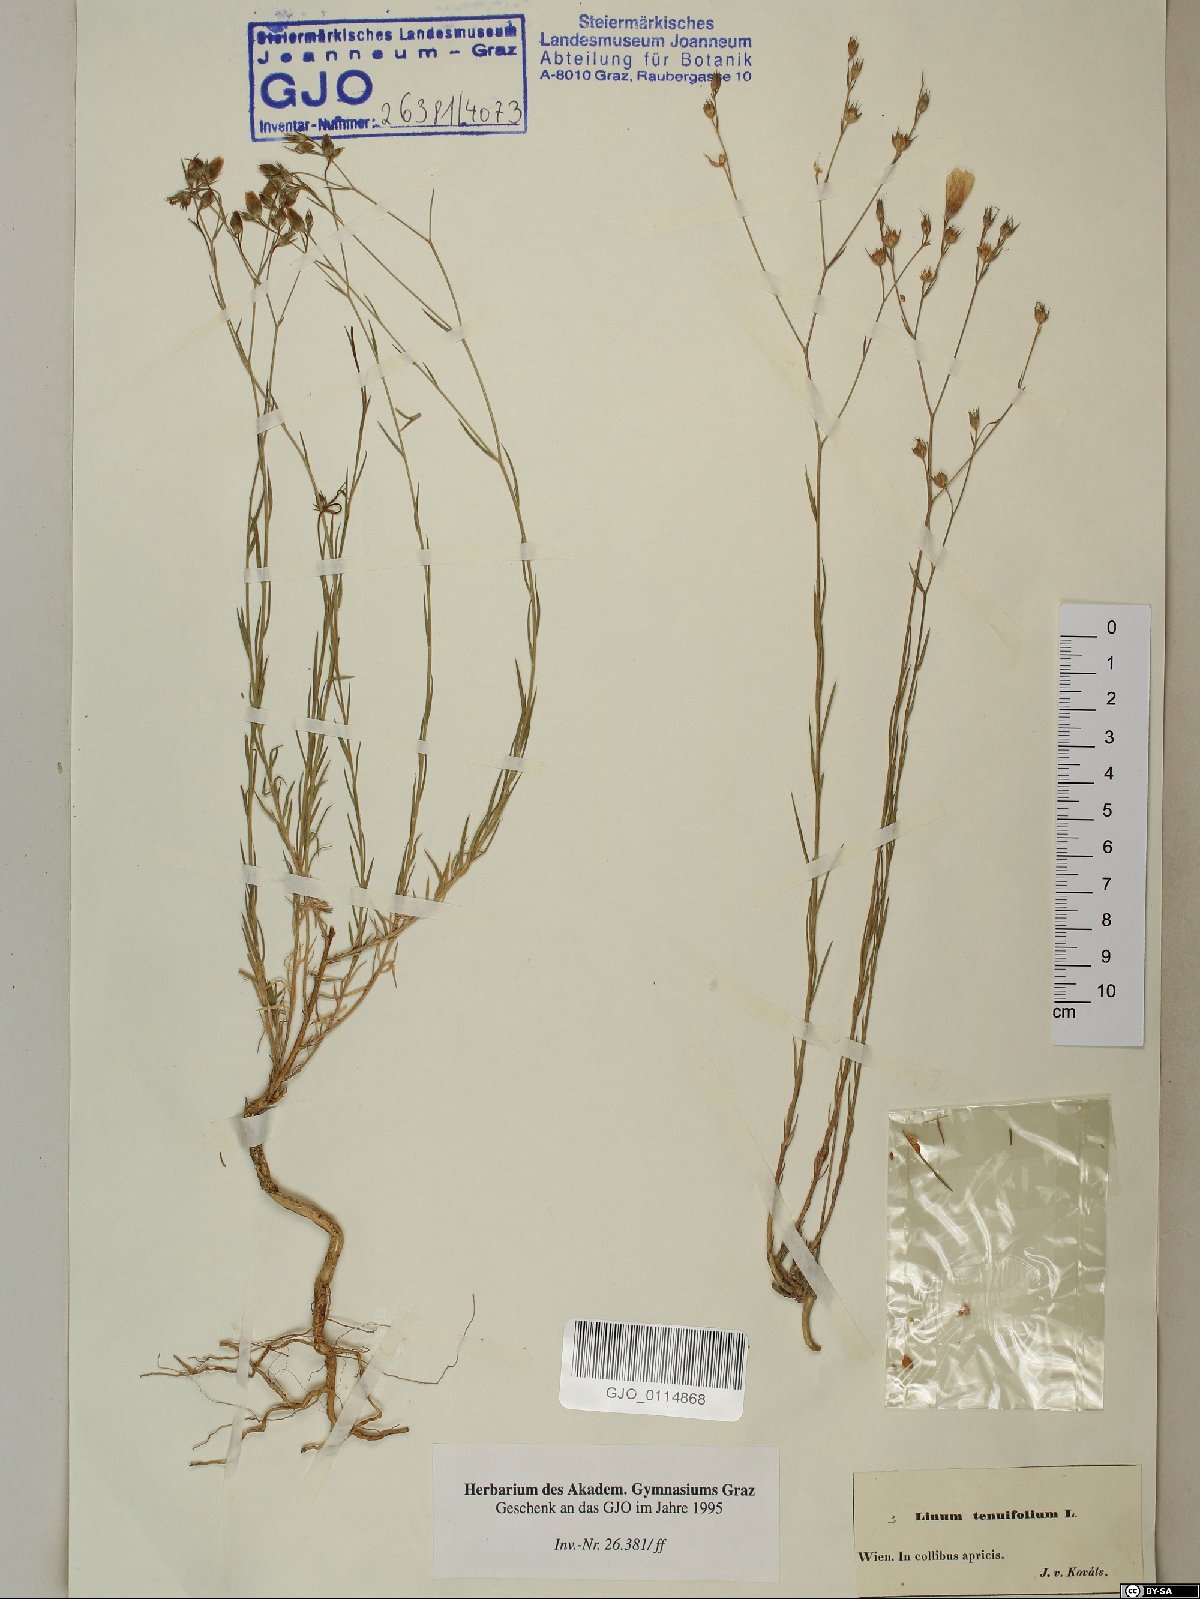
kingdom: Plantae
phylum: Tracheophyta
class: Magnoliopsida
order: Malpighiales
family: Linaceae
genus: Linum
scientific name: Linum tenuifolium
